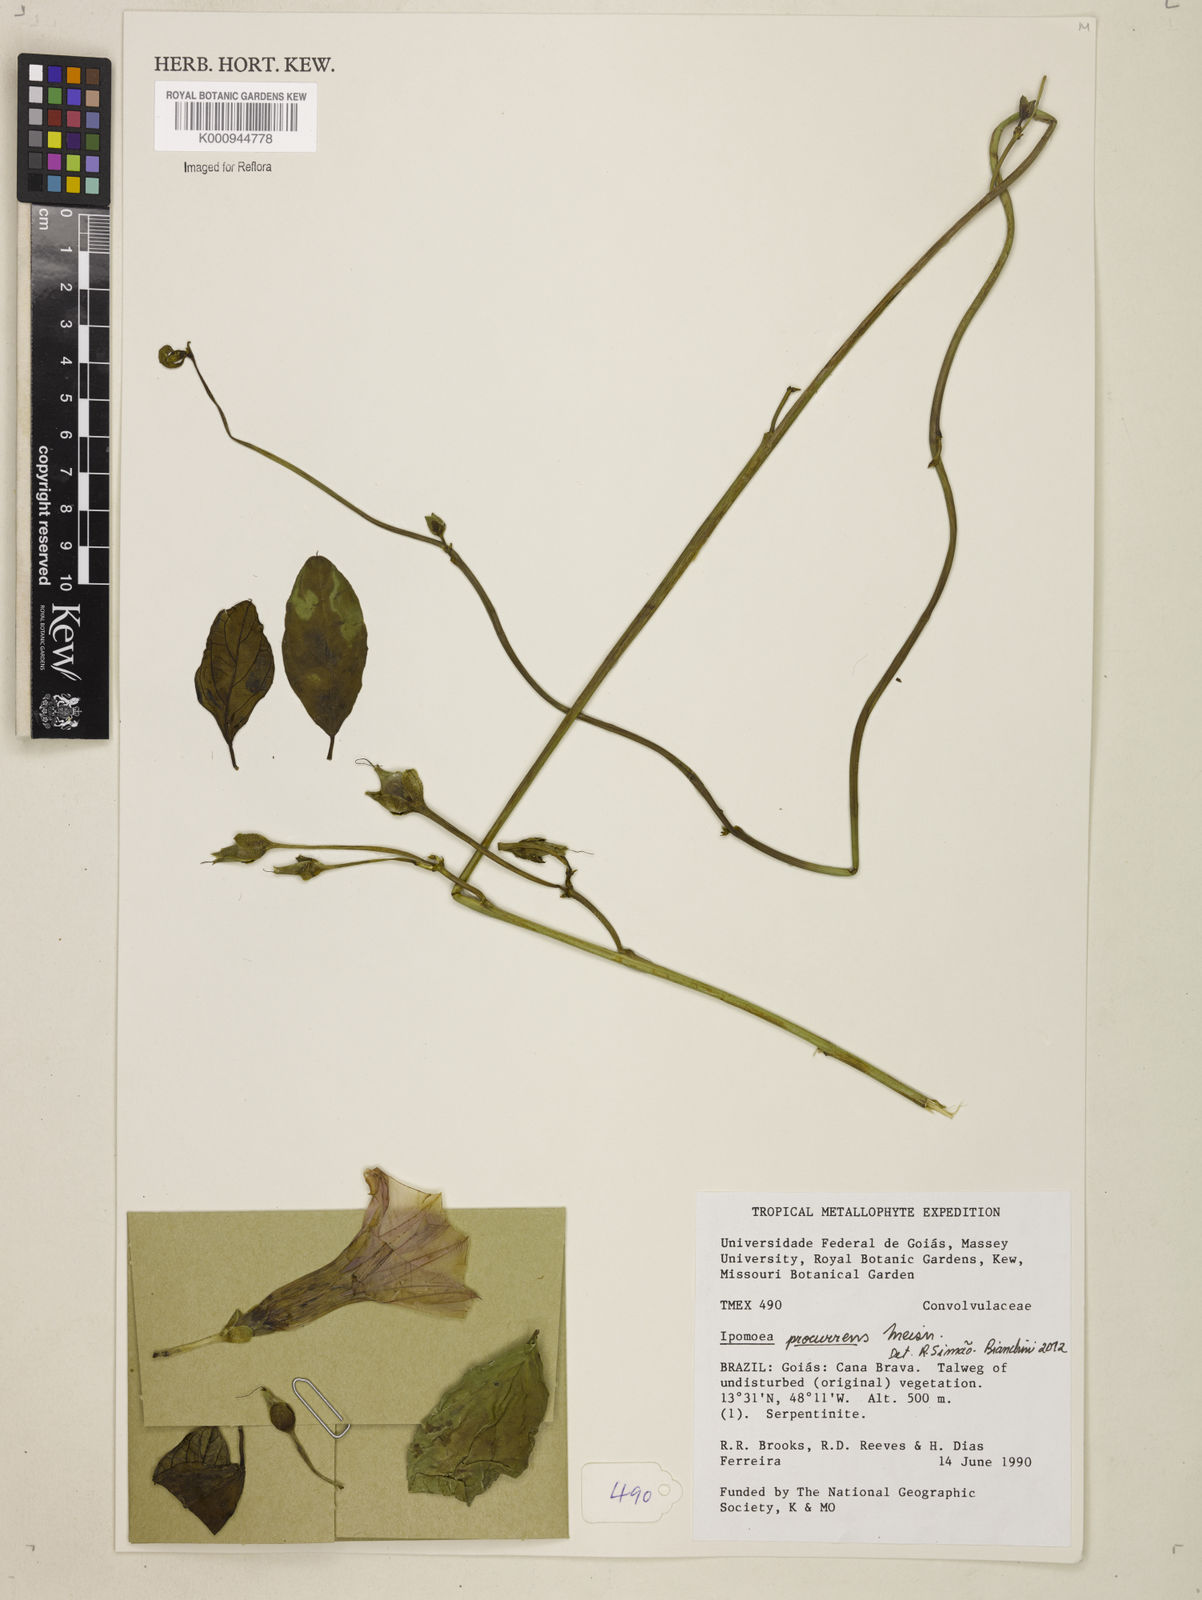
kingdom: Plantae
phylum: Tracheophyta
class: Magnoliopsida
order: Solanales
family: Convolvulaceae
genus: Ipomoea
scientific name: Ipomoea procurrens
